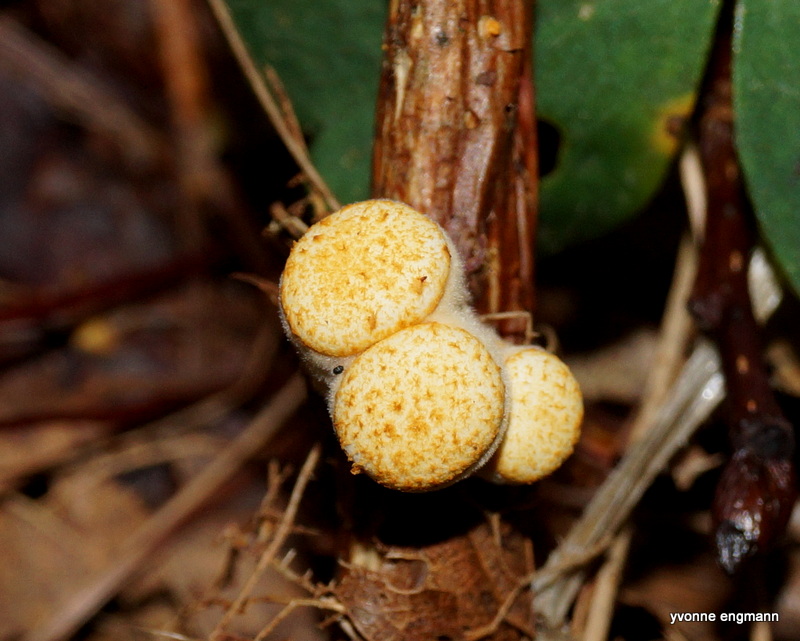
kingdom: Fungi
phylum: Basidiomycota
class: Agaricomycetes
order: Agaricales
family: Nidulariaceae
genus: Crucibulum
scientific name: Crucibulum
